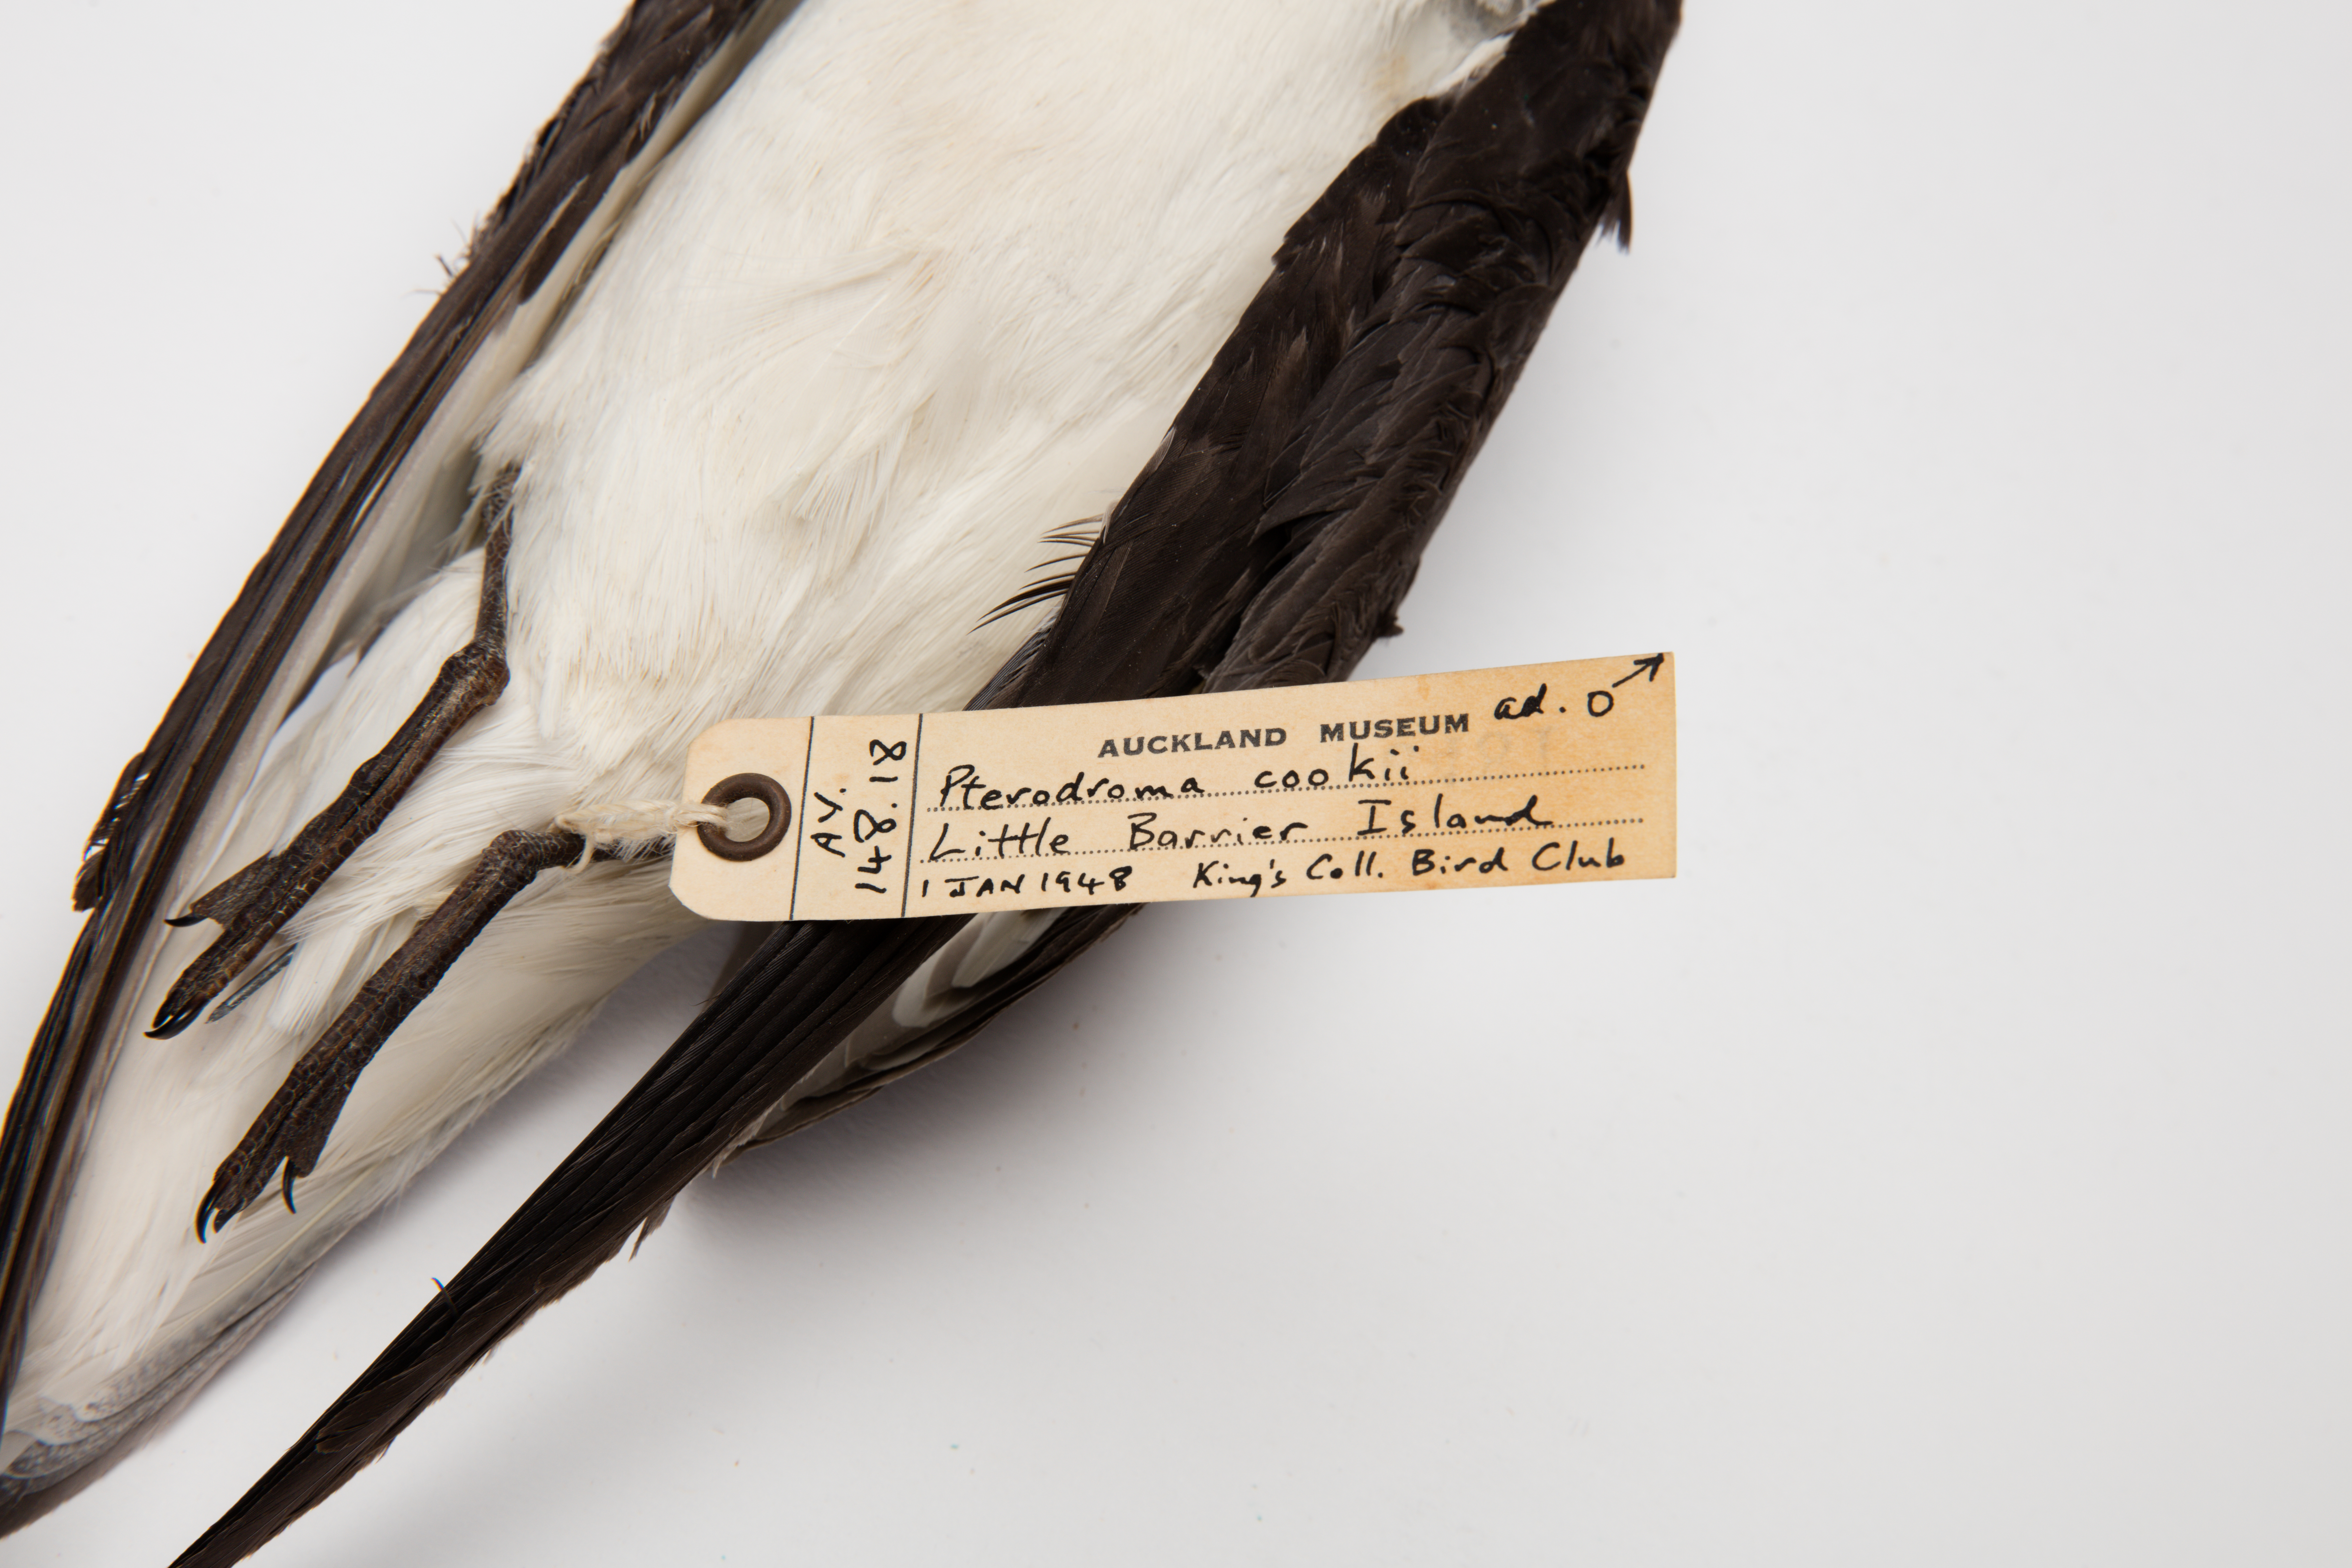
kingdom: Animalia
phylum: Chordata
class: Aves
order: Procellariiformes
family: Procellariidae
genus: Pterodroma
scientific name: Pterodroma cookii
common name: Cook's petrel
